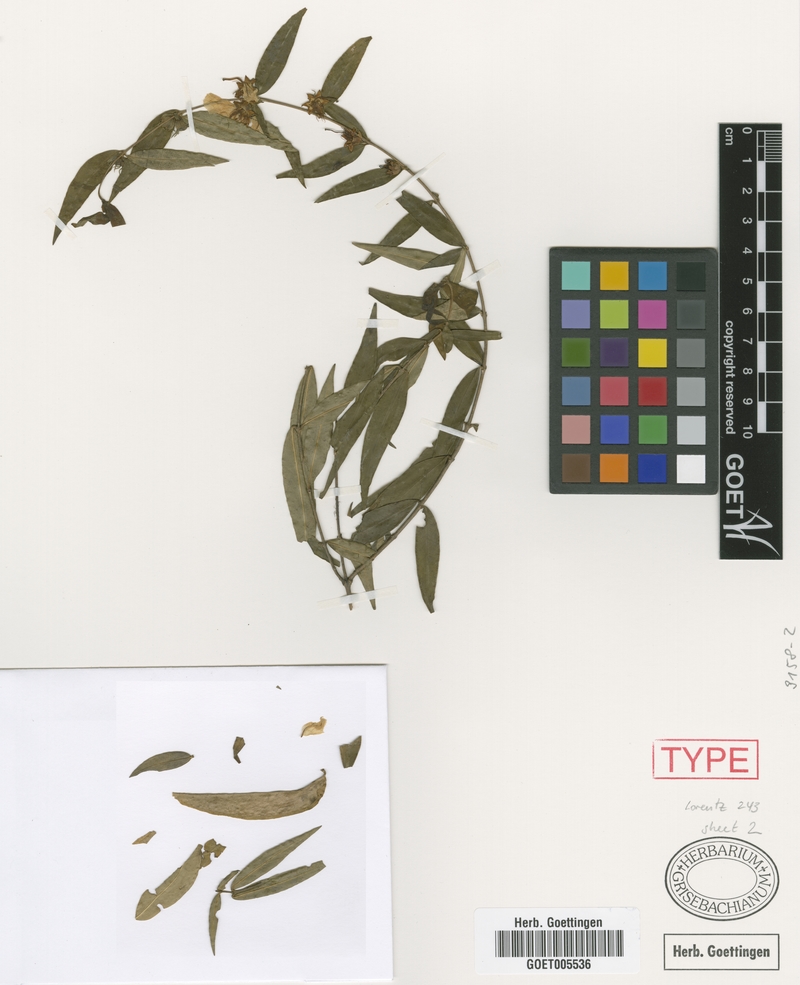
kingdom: Plantae
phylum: Tracheophyta
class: Magnoliopsida
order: Myrtales
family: Lythraceae
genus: Heimia
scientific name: Heimia montana
